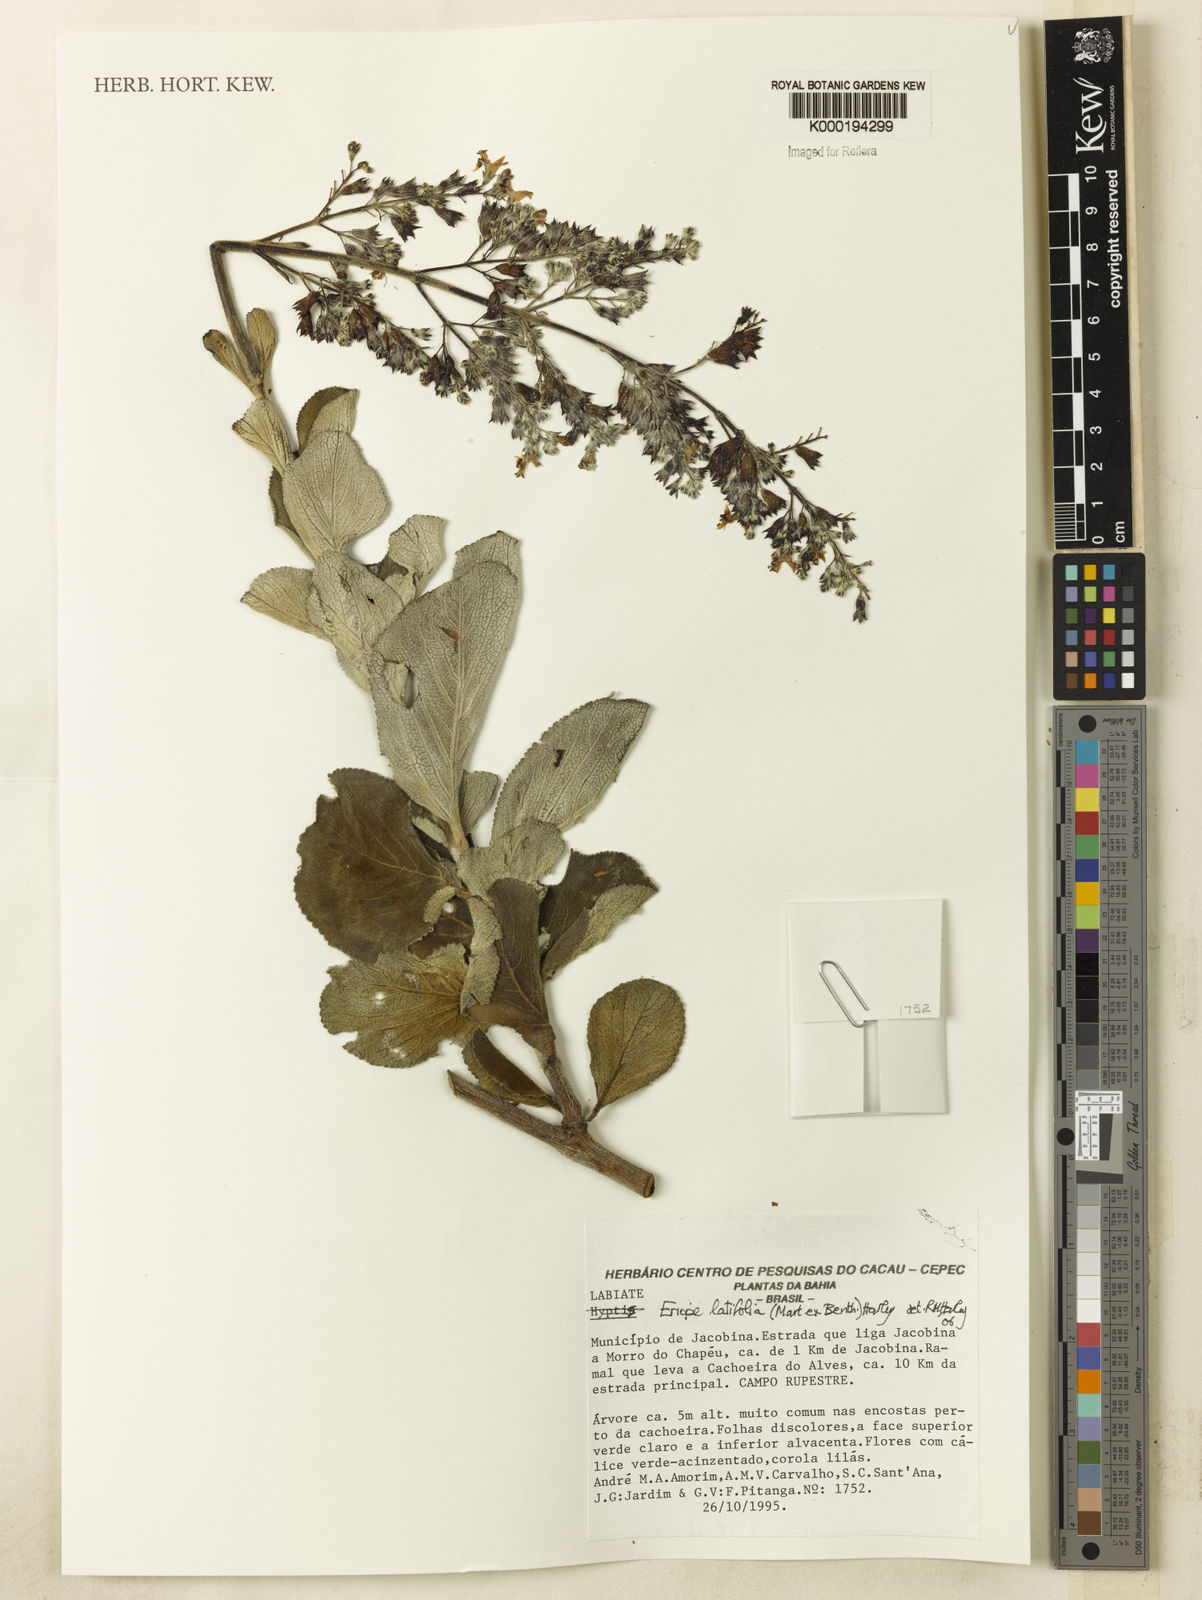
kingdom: Plantae
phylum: Tracheophyta
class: Magnoliopsida
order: Lamiales
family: Lamiaceae
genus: Marsypianthes
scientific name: Marsypianthes chamaedrys
